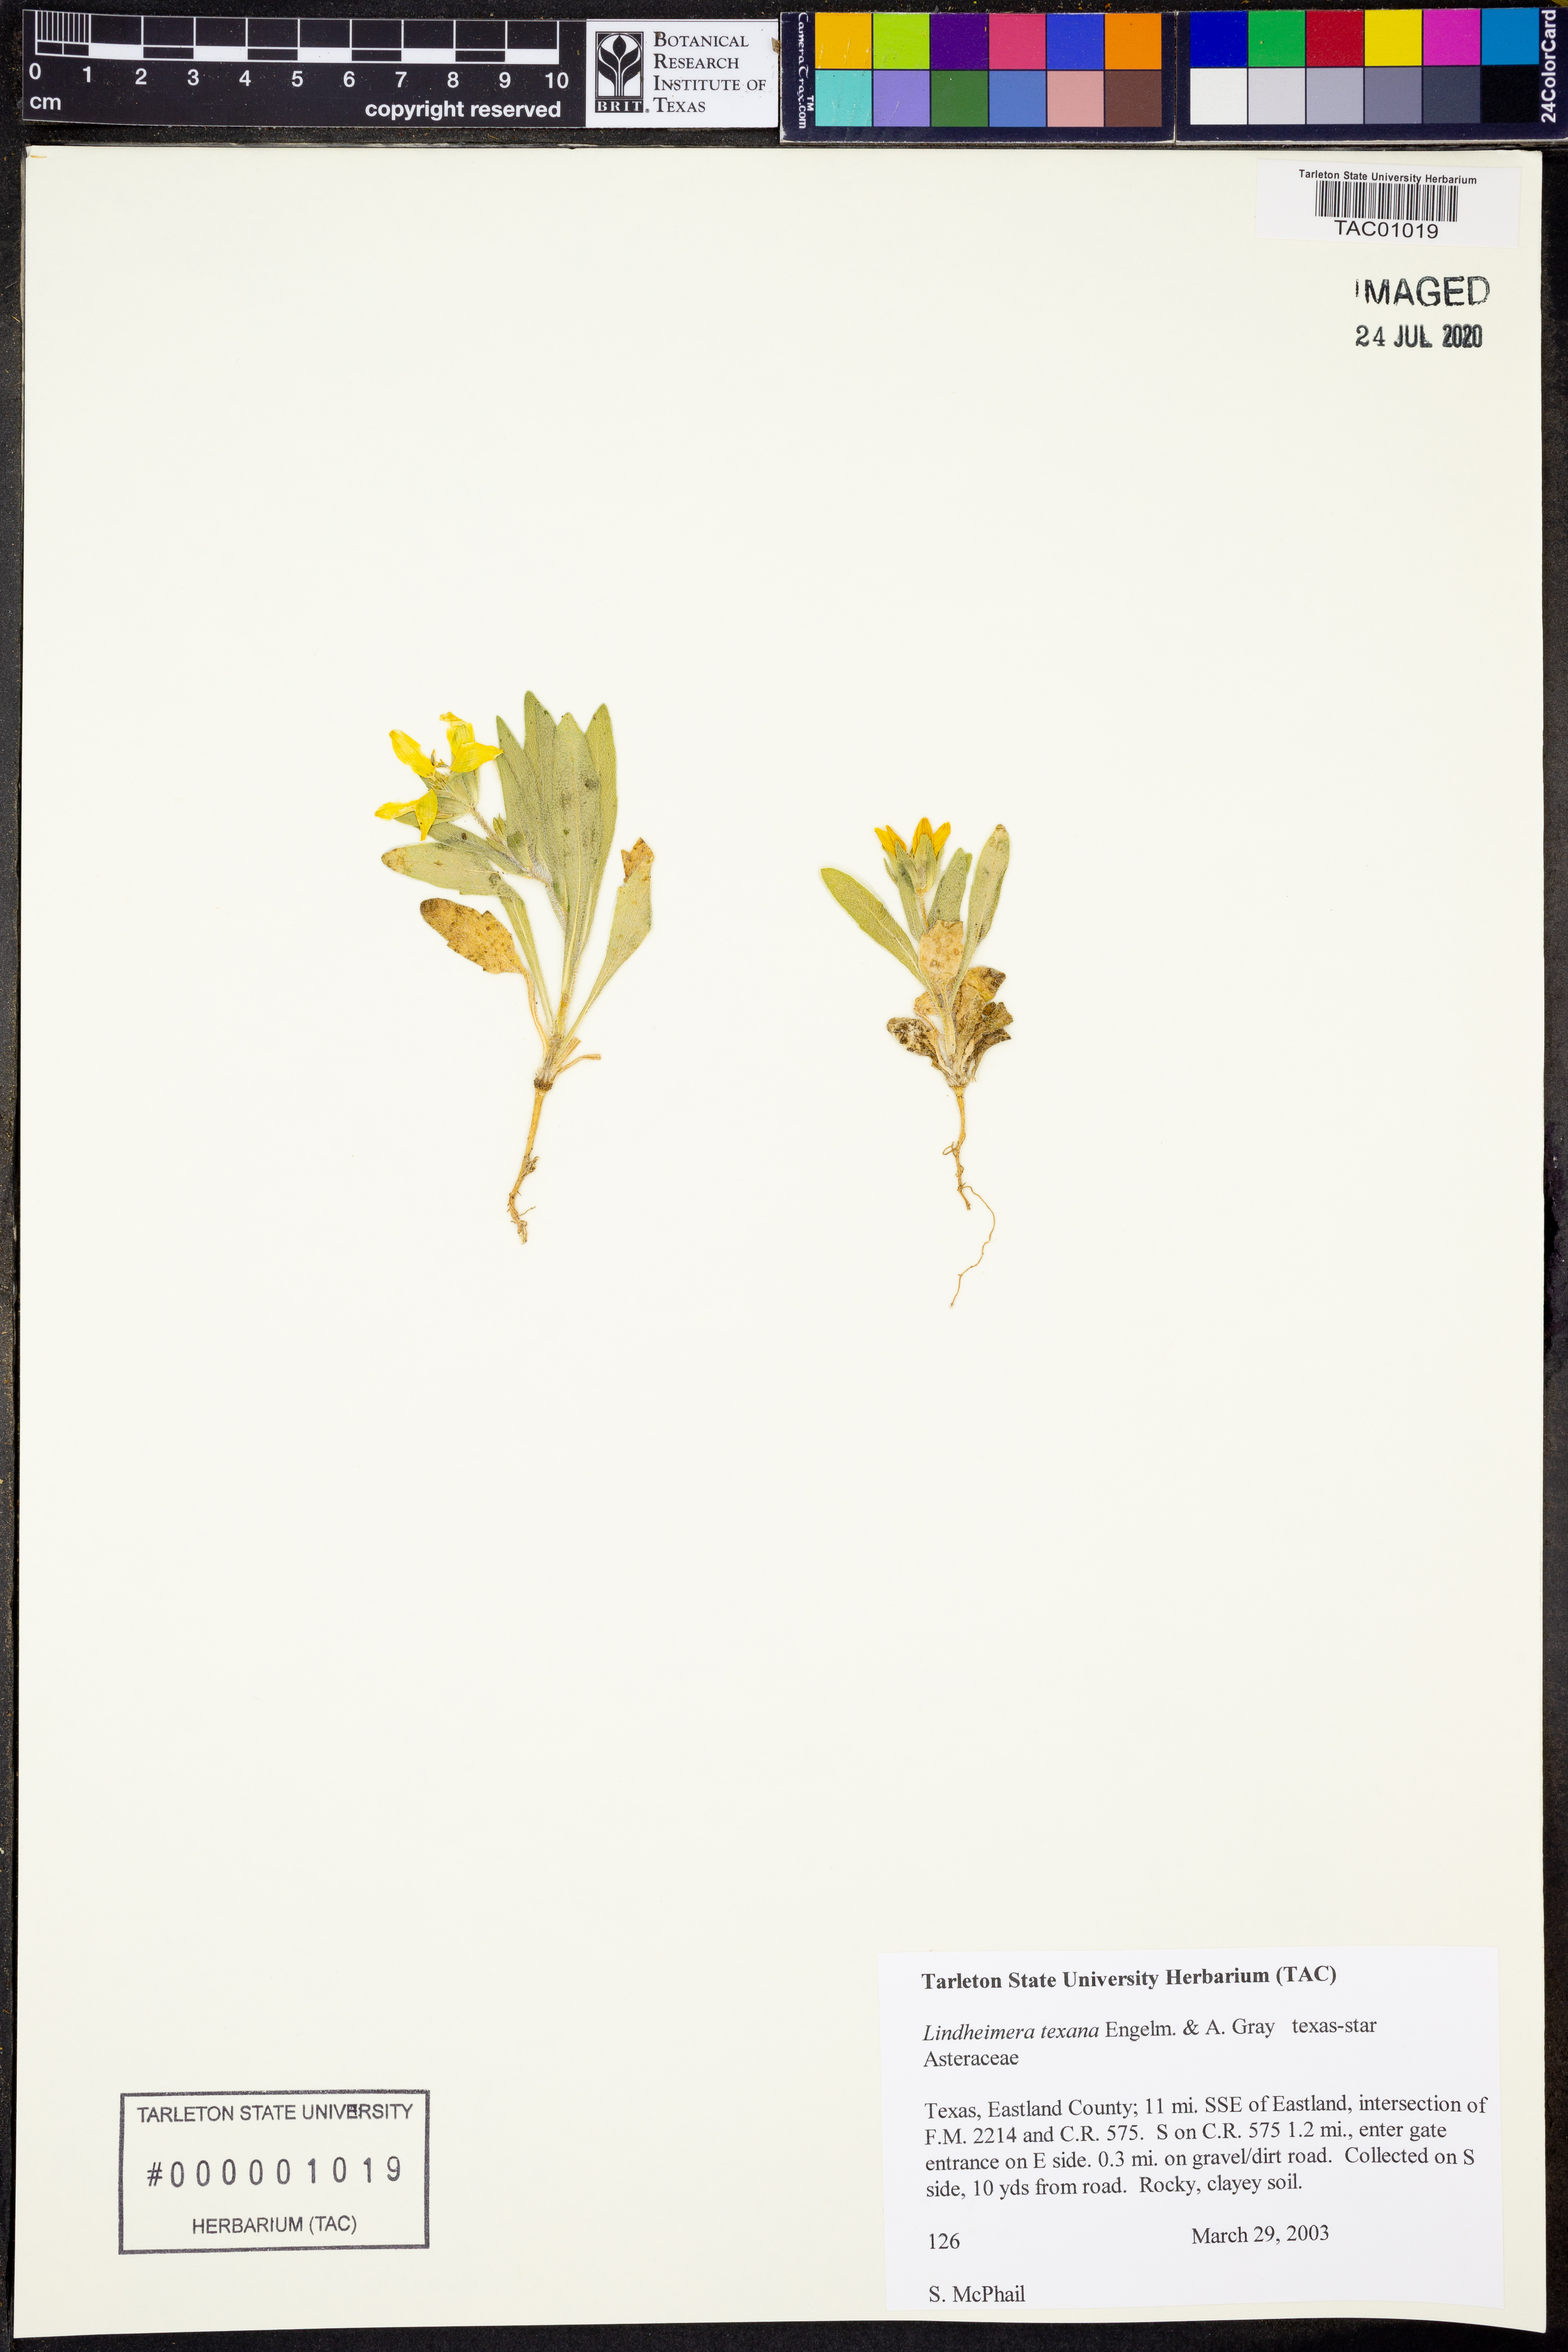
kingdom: Plantae
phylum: Tracheophyta
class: Magnoliopsida
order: Asterales
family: Asteraceae
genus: Lindheimera
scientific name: Lindheimera texana
